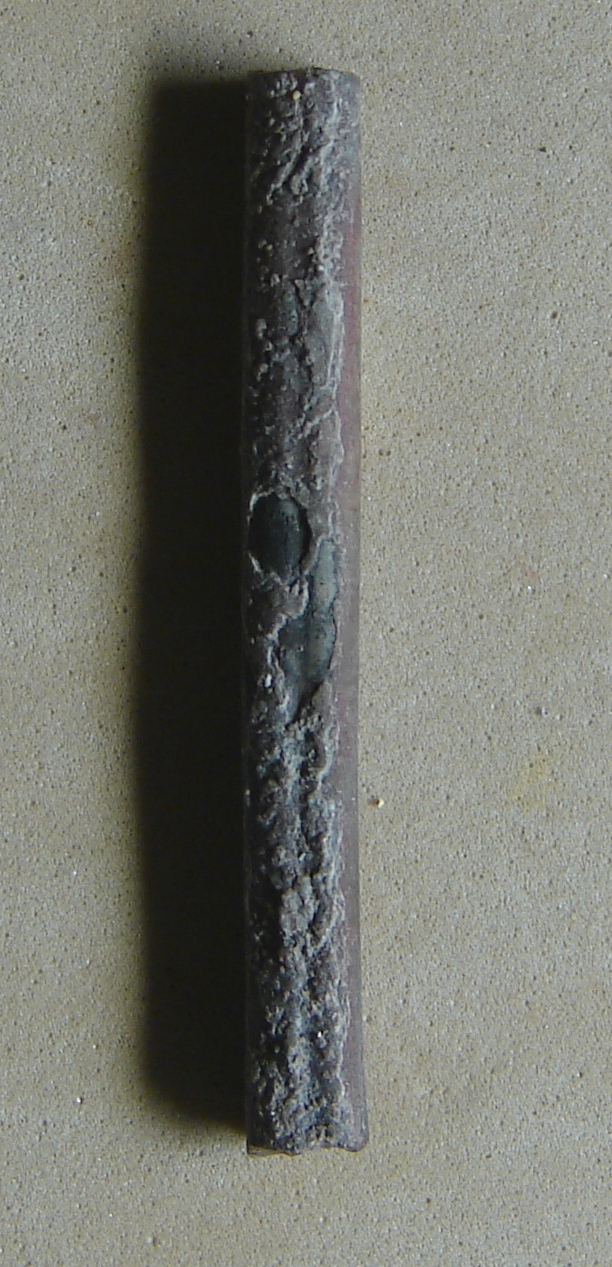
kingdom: Animalia
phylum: Mollusca
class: Cephalopoda
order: Belemnitida
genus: Rhabdobelus
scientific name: Rhabdobelus
